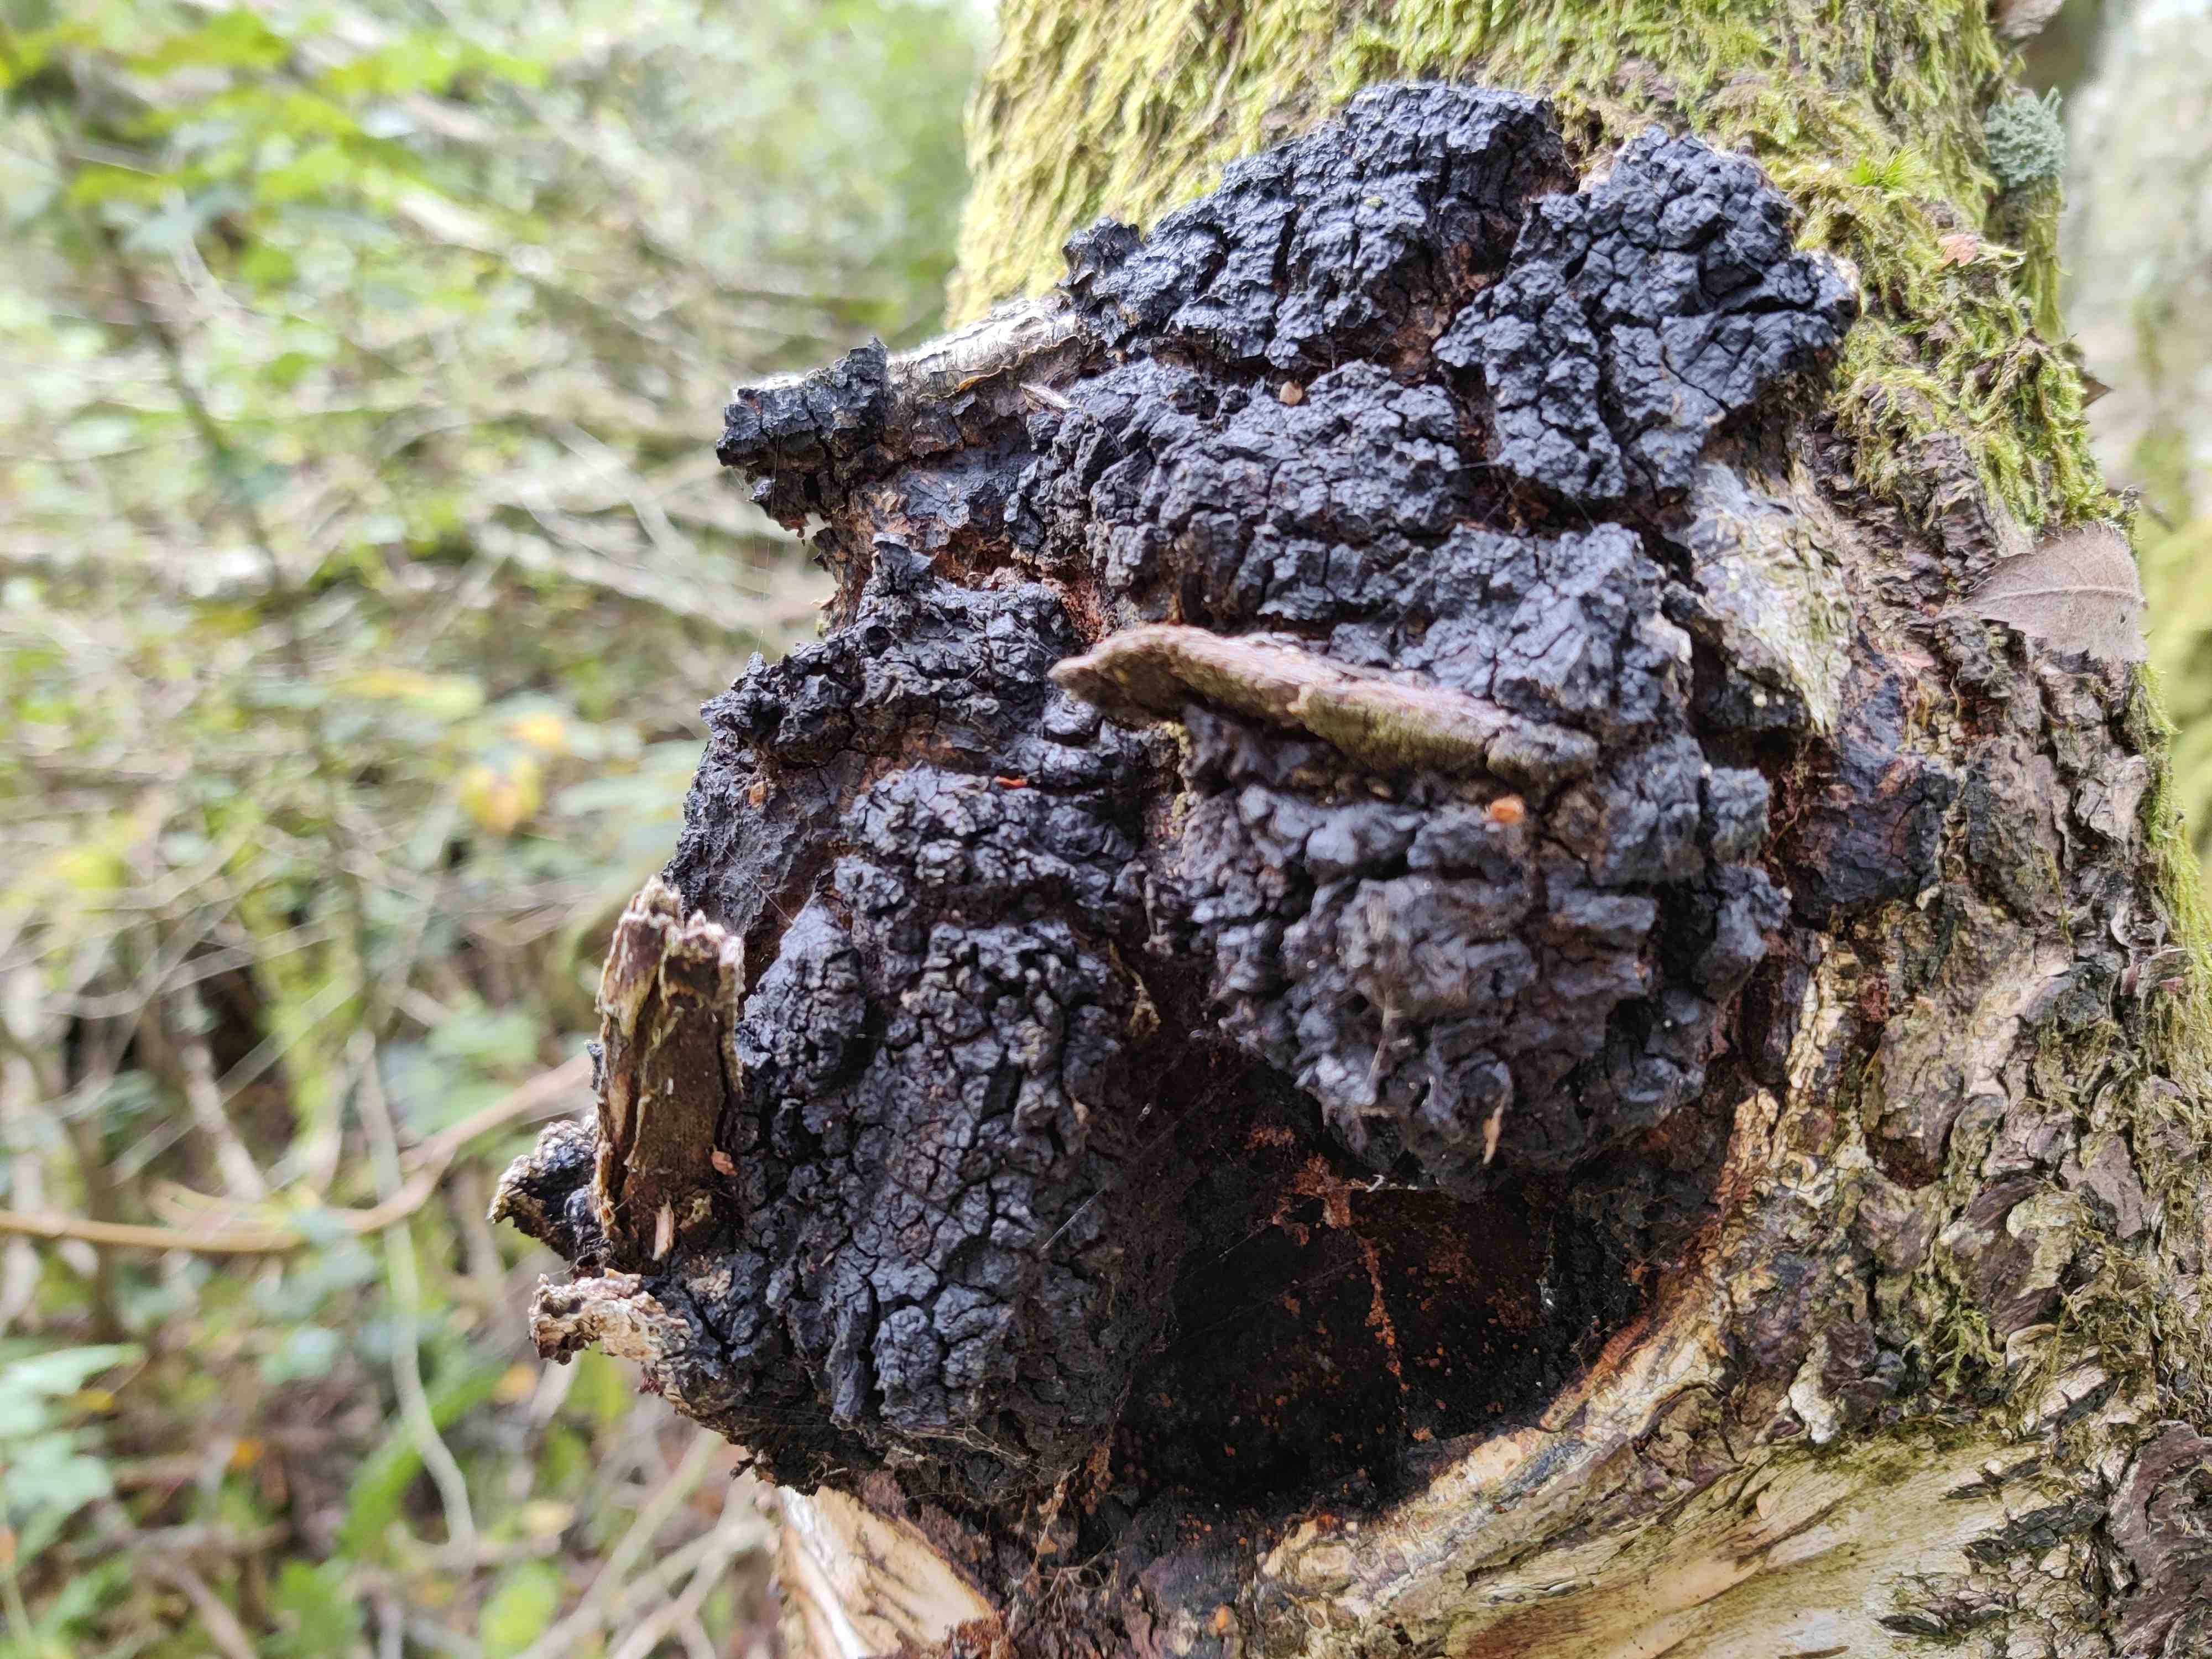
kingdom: Fungi
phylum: Basidiomycota
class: Agaricomycetes
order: Hymenochaetales
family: Hymenochaetaceae
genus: Inonotus
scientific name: Inonotus obliquus
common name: birke-spejlporesvamp
